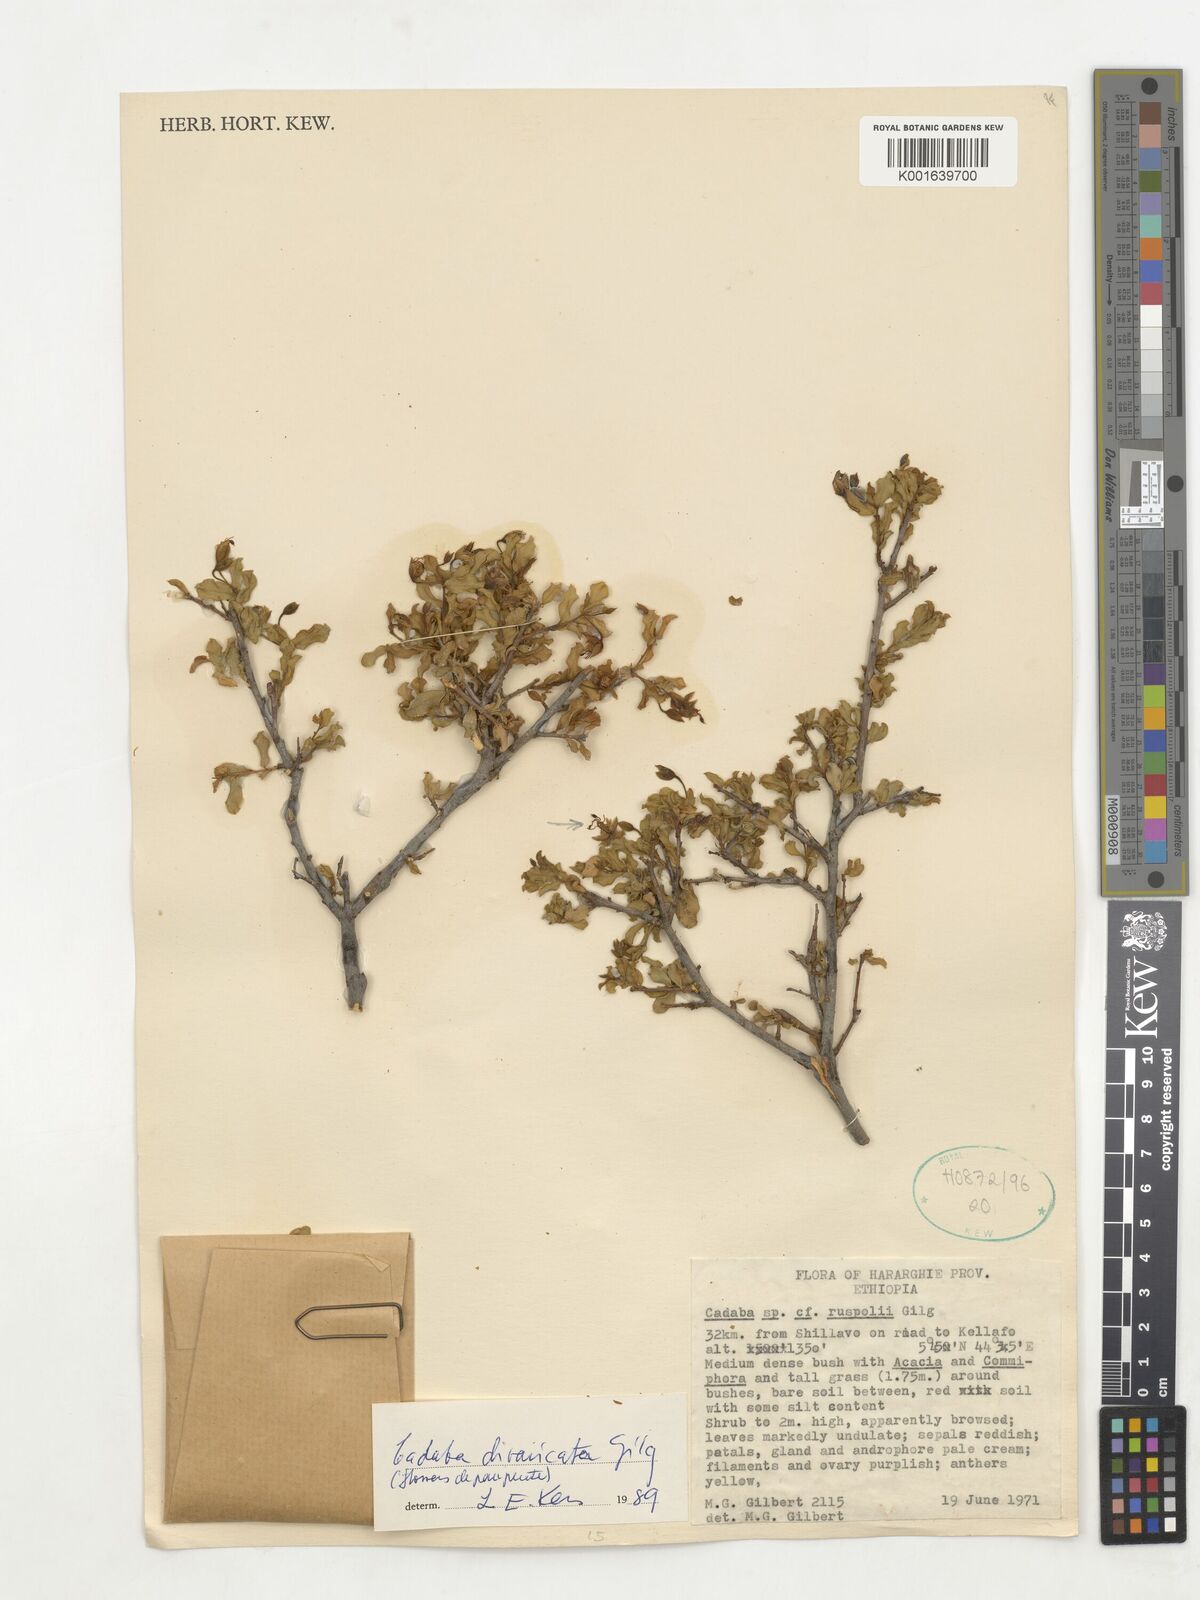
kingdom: Plantae
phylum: Tracheophyta
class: Magnoliopsida
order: Brassicales
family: Capparaceae
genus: Cadaba
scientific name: Cadaba divaricata
